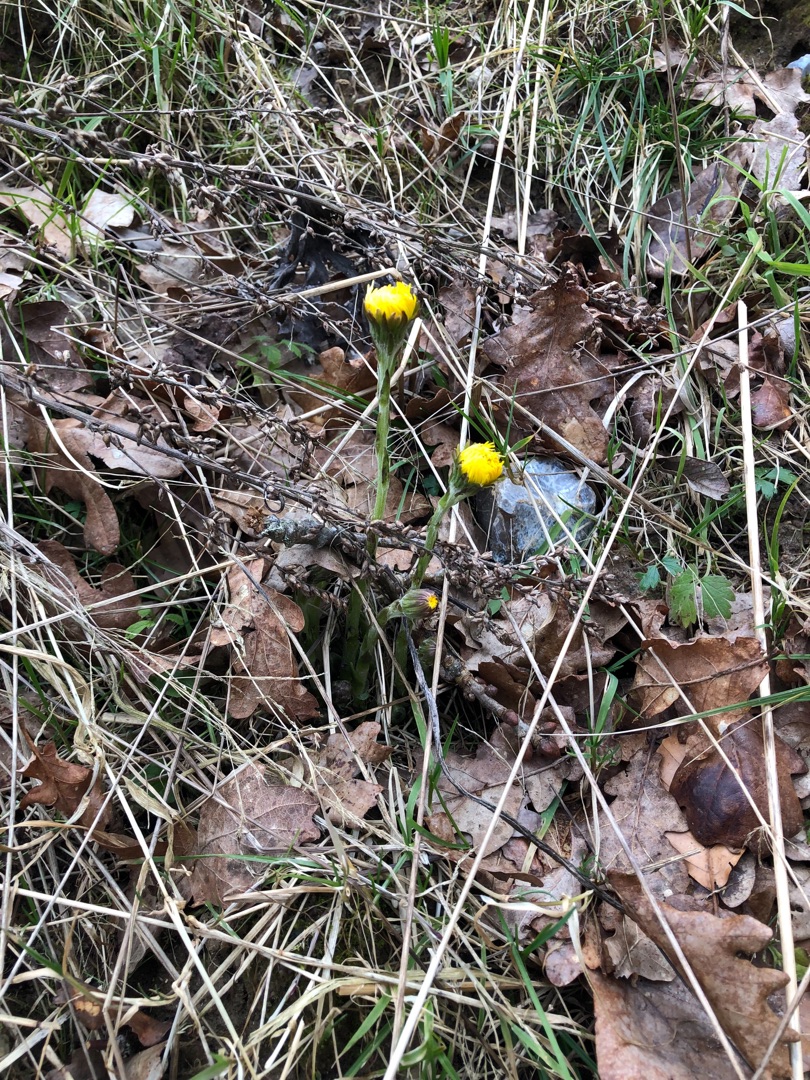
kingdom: Plantae
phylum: Tracheophyta
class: Magnoliopsida
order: Asterales
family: Asteraceae
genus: Tussilago
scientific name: Tussilago farfara
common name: Følfod
